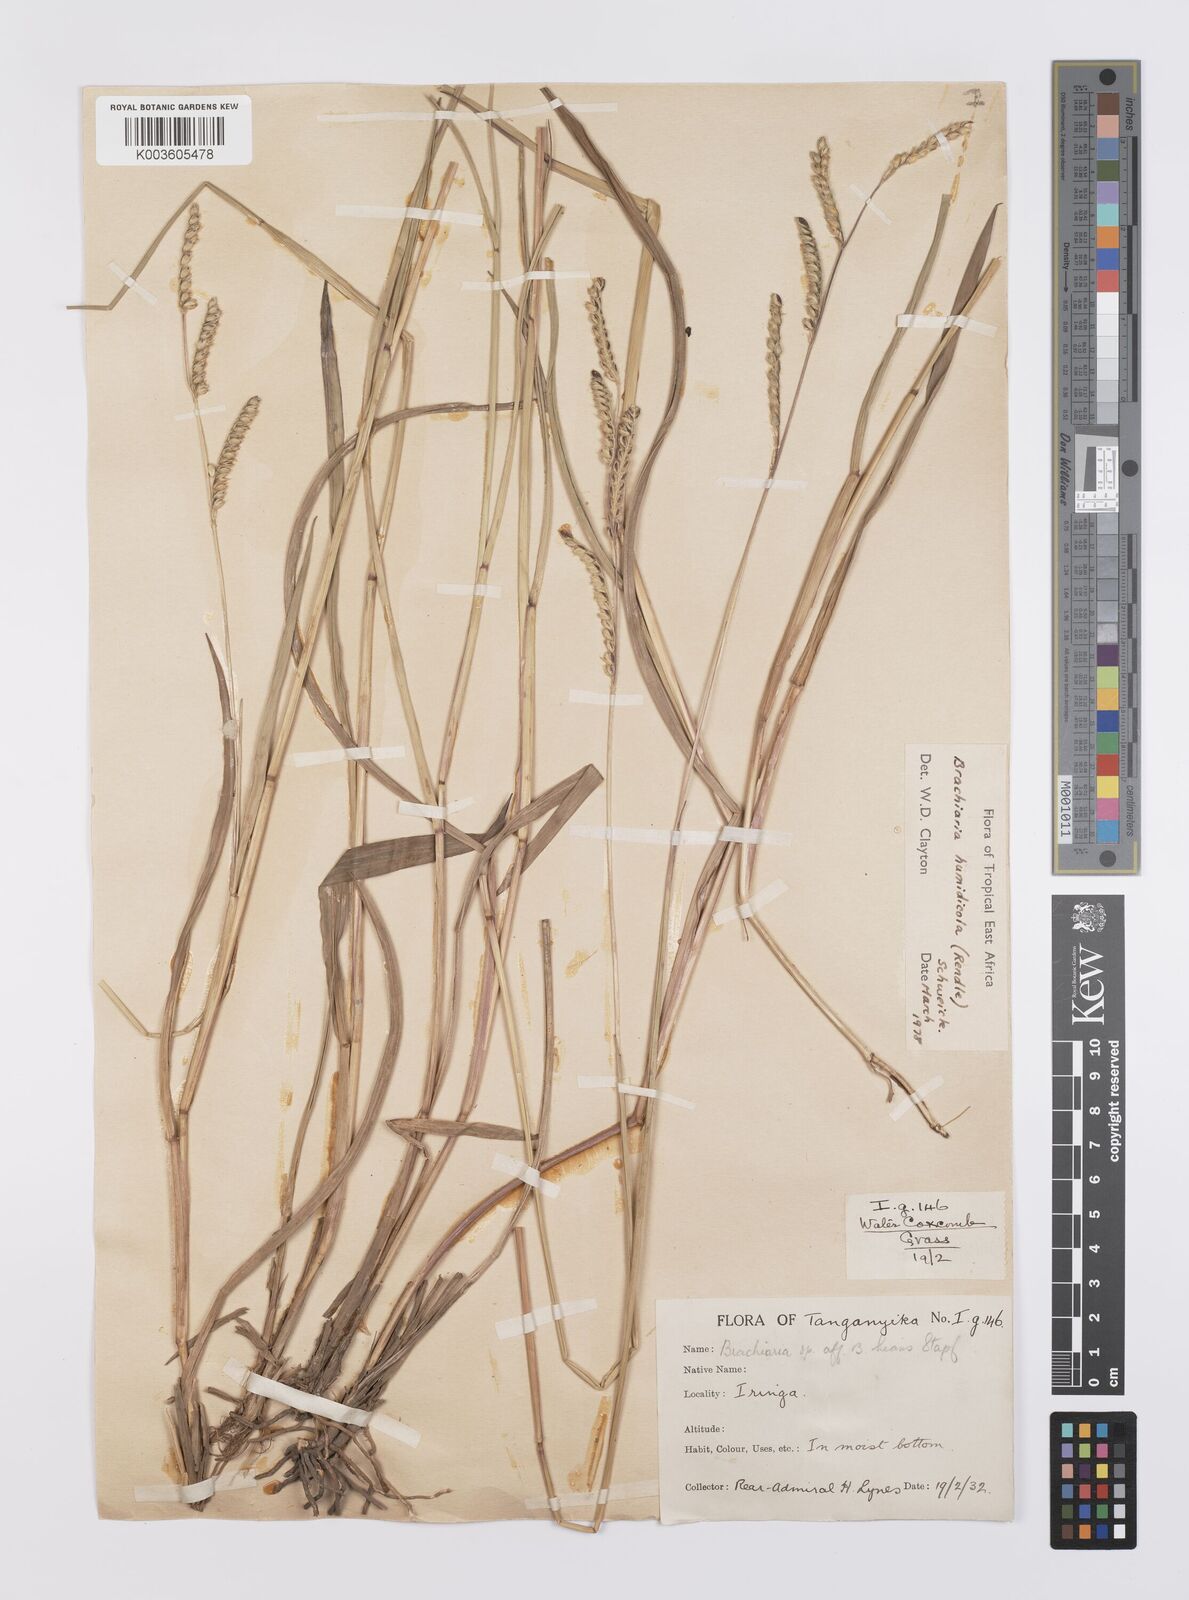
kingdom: Plantae
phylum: Tracheophyta
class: Liliopsida
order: Poales
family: Poaceae
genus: Urochloa
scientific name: Urochloa dictyoneura
